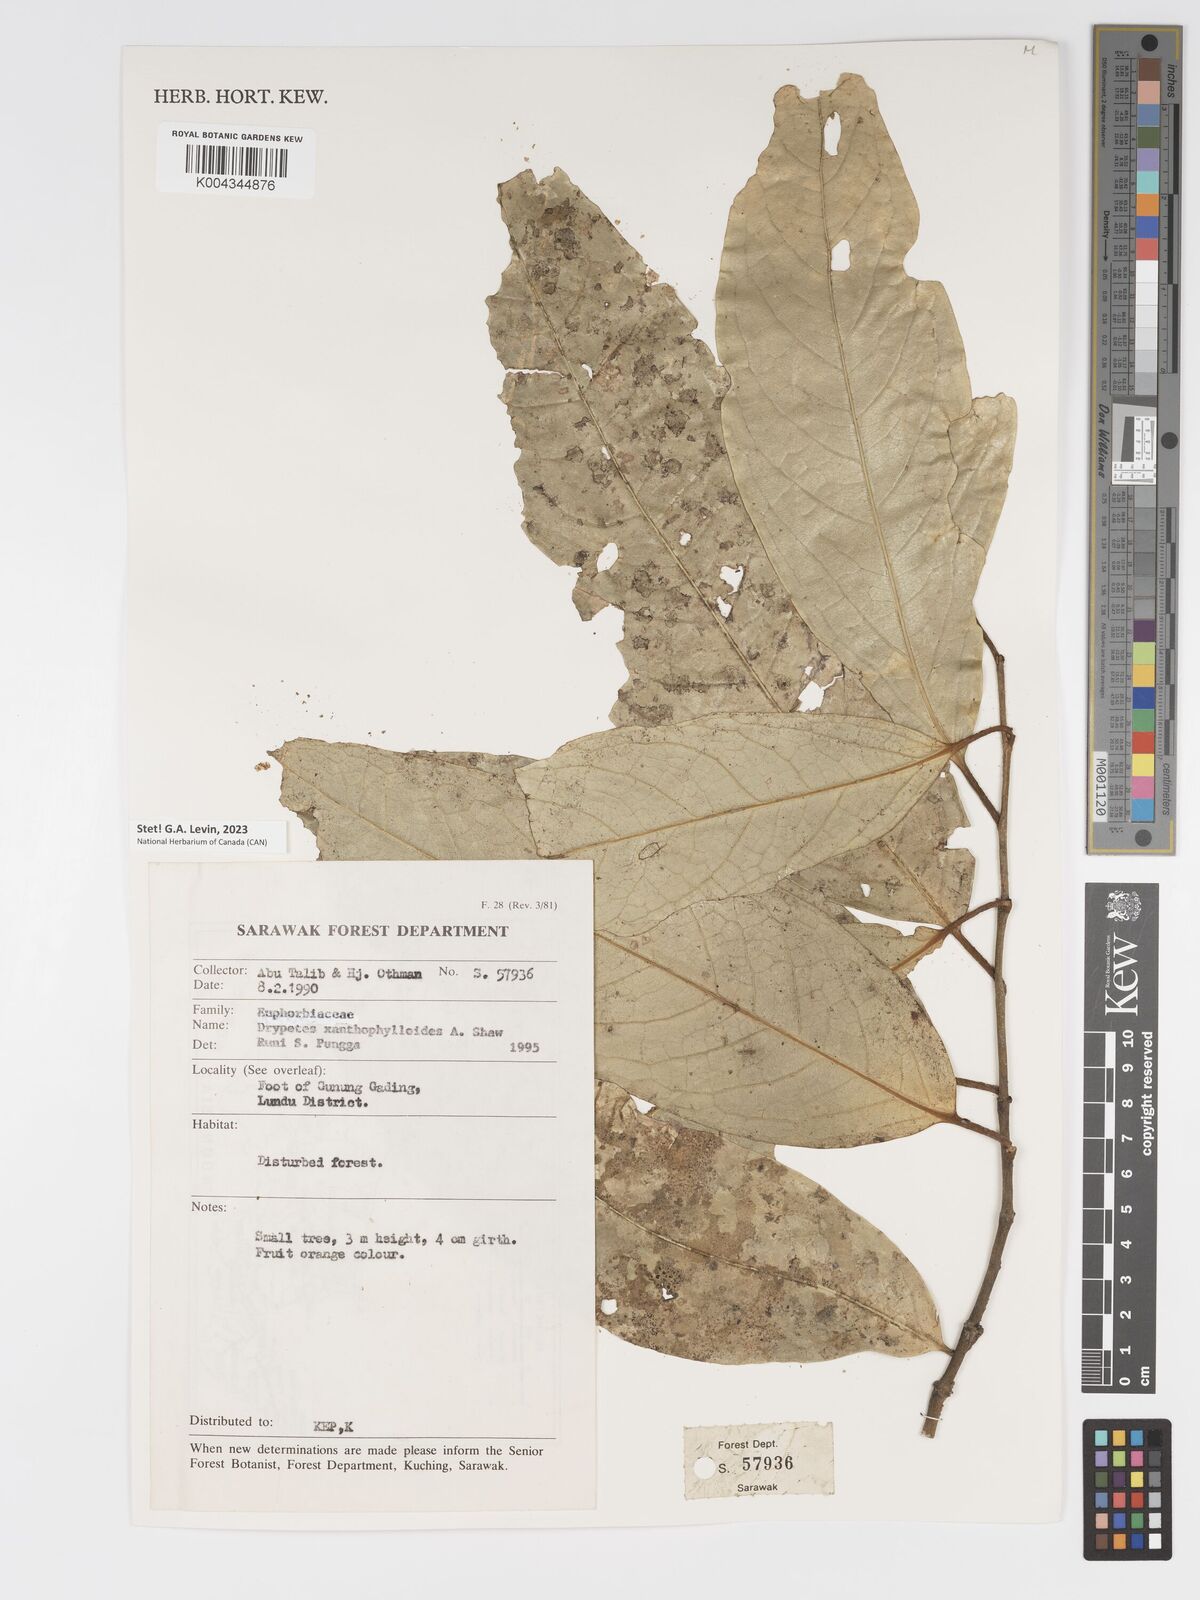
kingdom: Plantae
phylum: Tracheophyta
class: Magnoliopsida
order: Malpighiales
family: Putranjivaceae
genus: Drypetes
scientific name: Drypetes xanthophylloides
